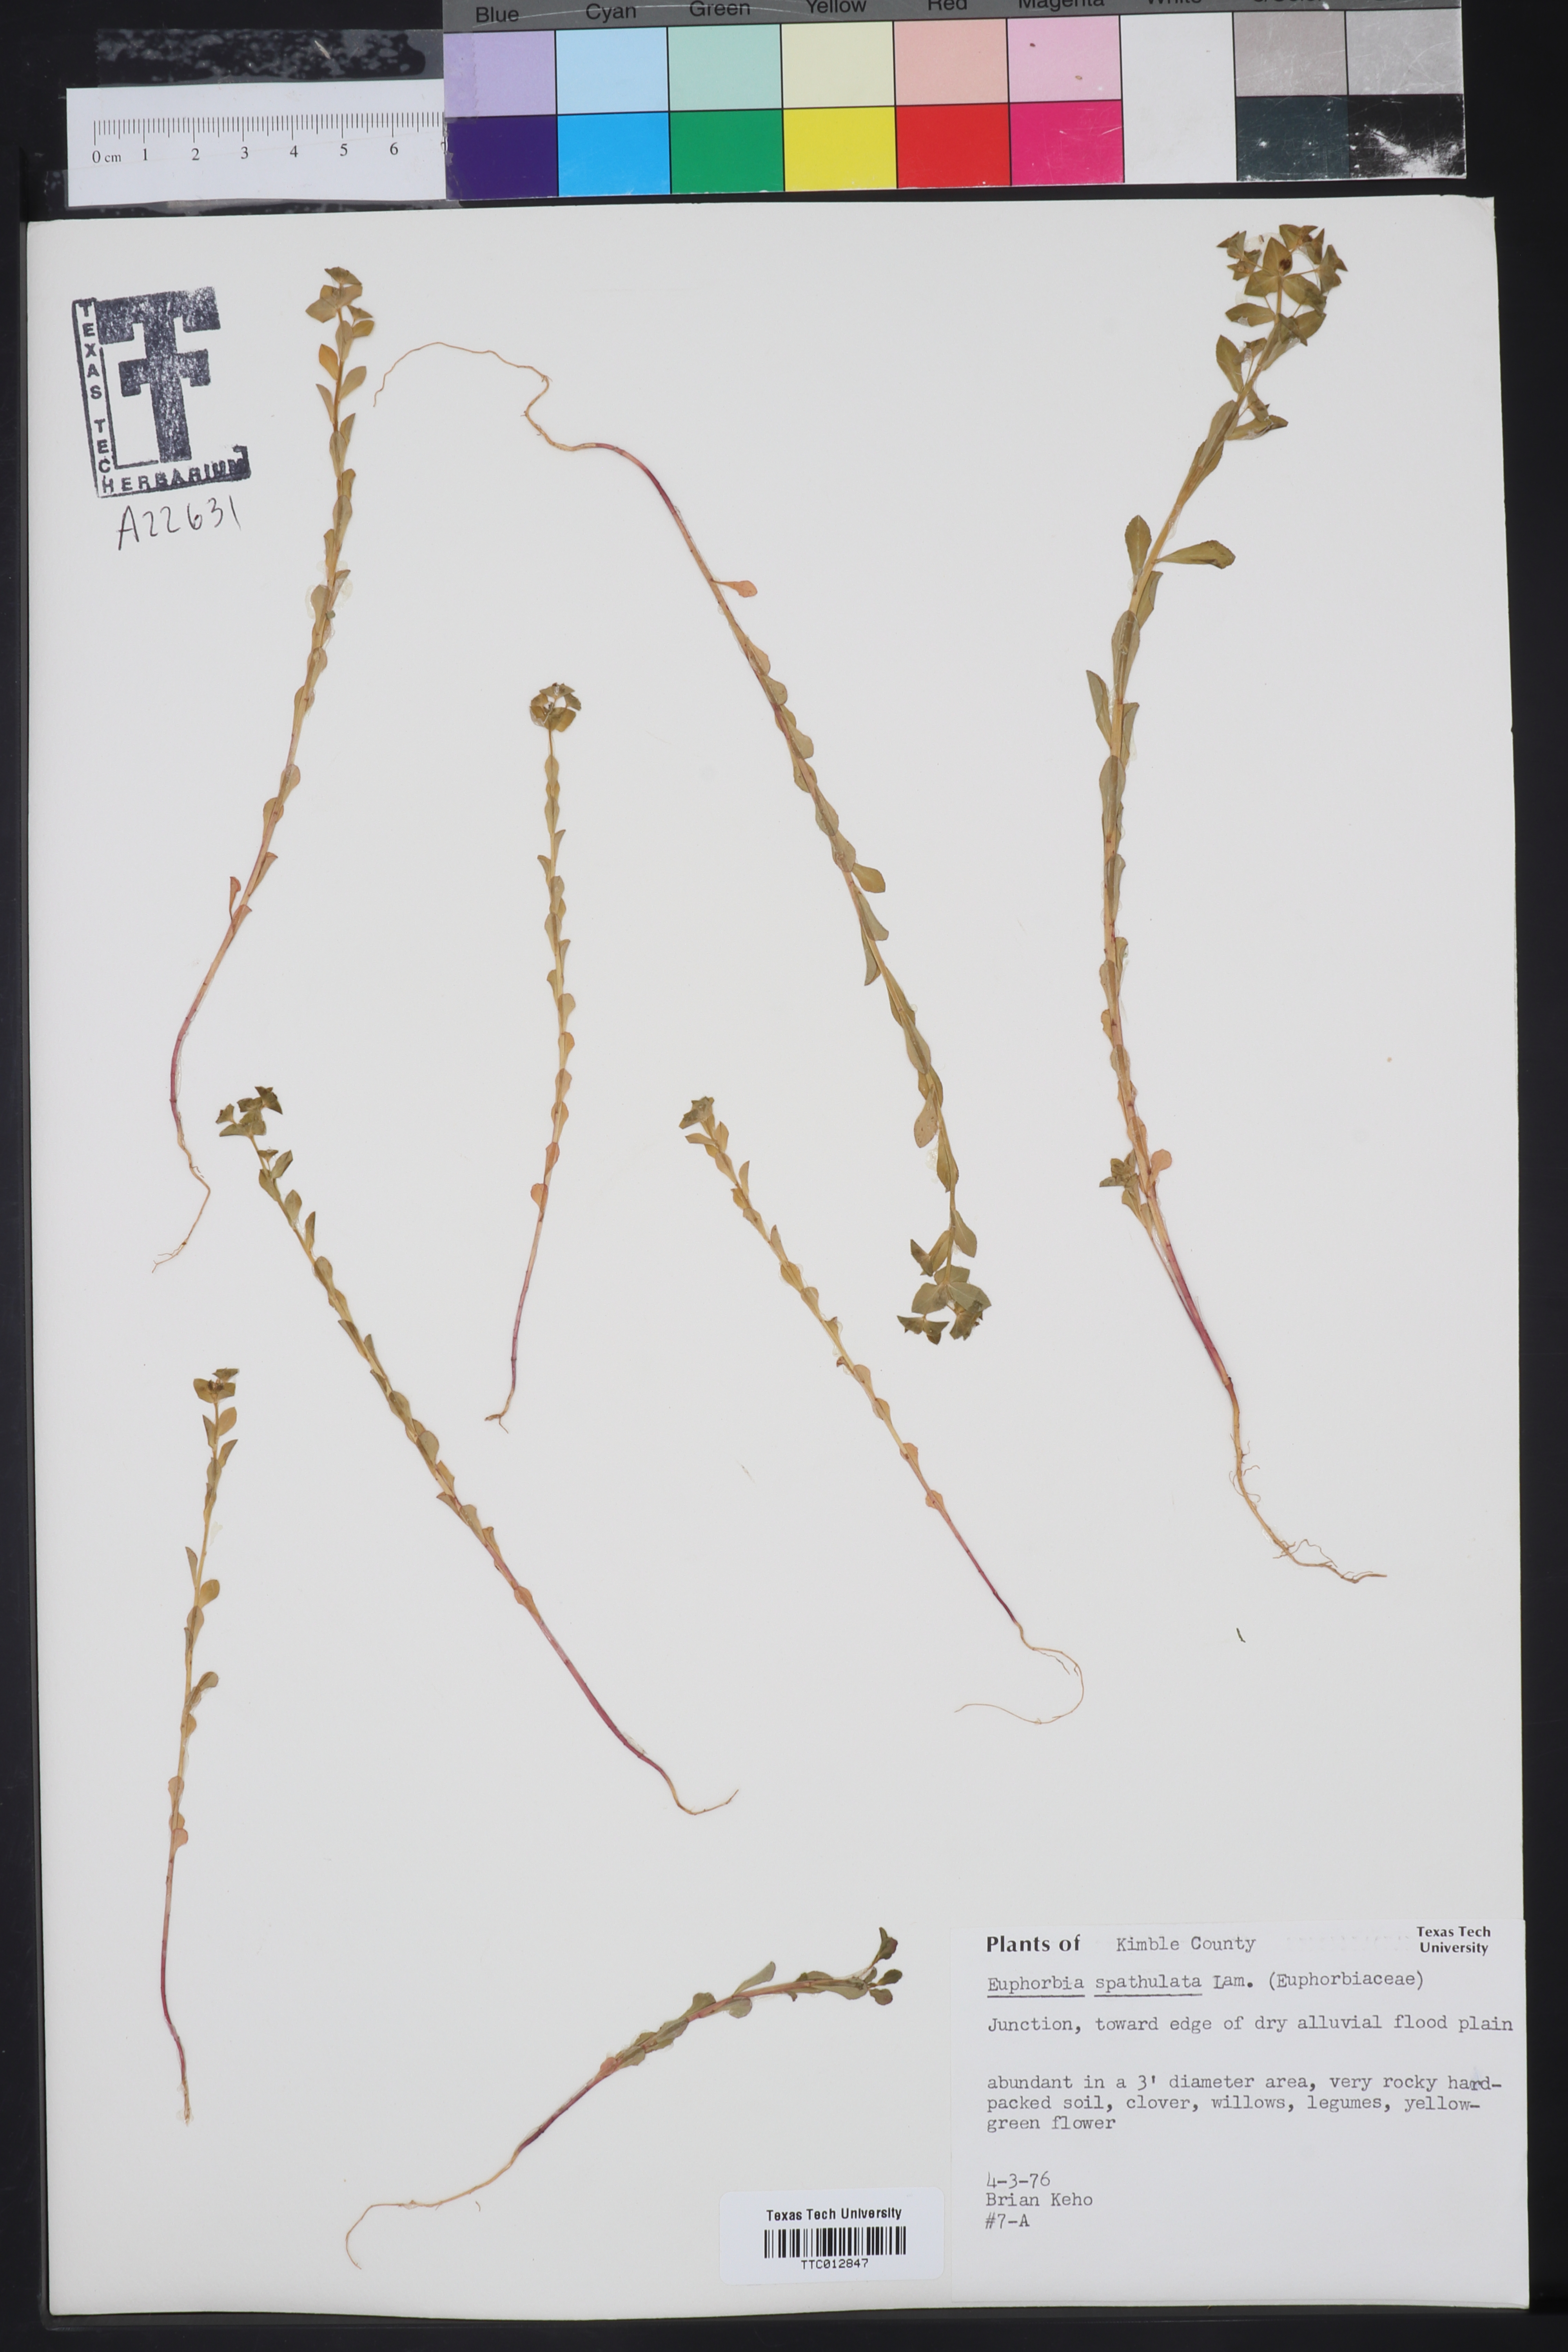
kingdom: Plantae
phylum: Tracheophyta
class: Magnoliopsida
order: Malpighiales
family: Euphorbiaceae
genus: Euphorbia
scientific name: Euphorbia spathulata
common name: Blunt spurge
